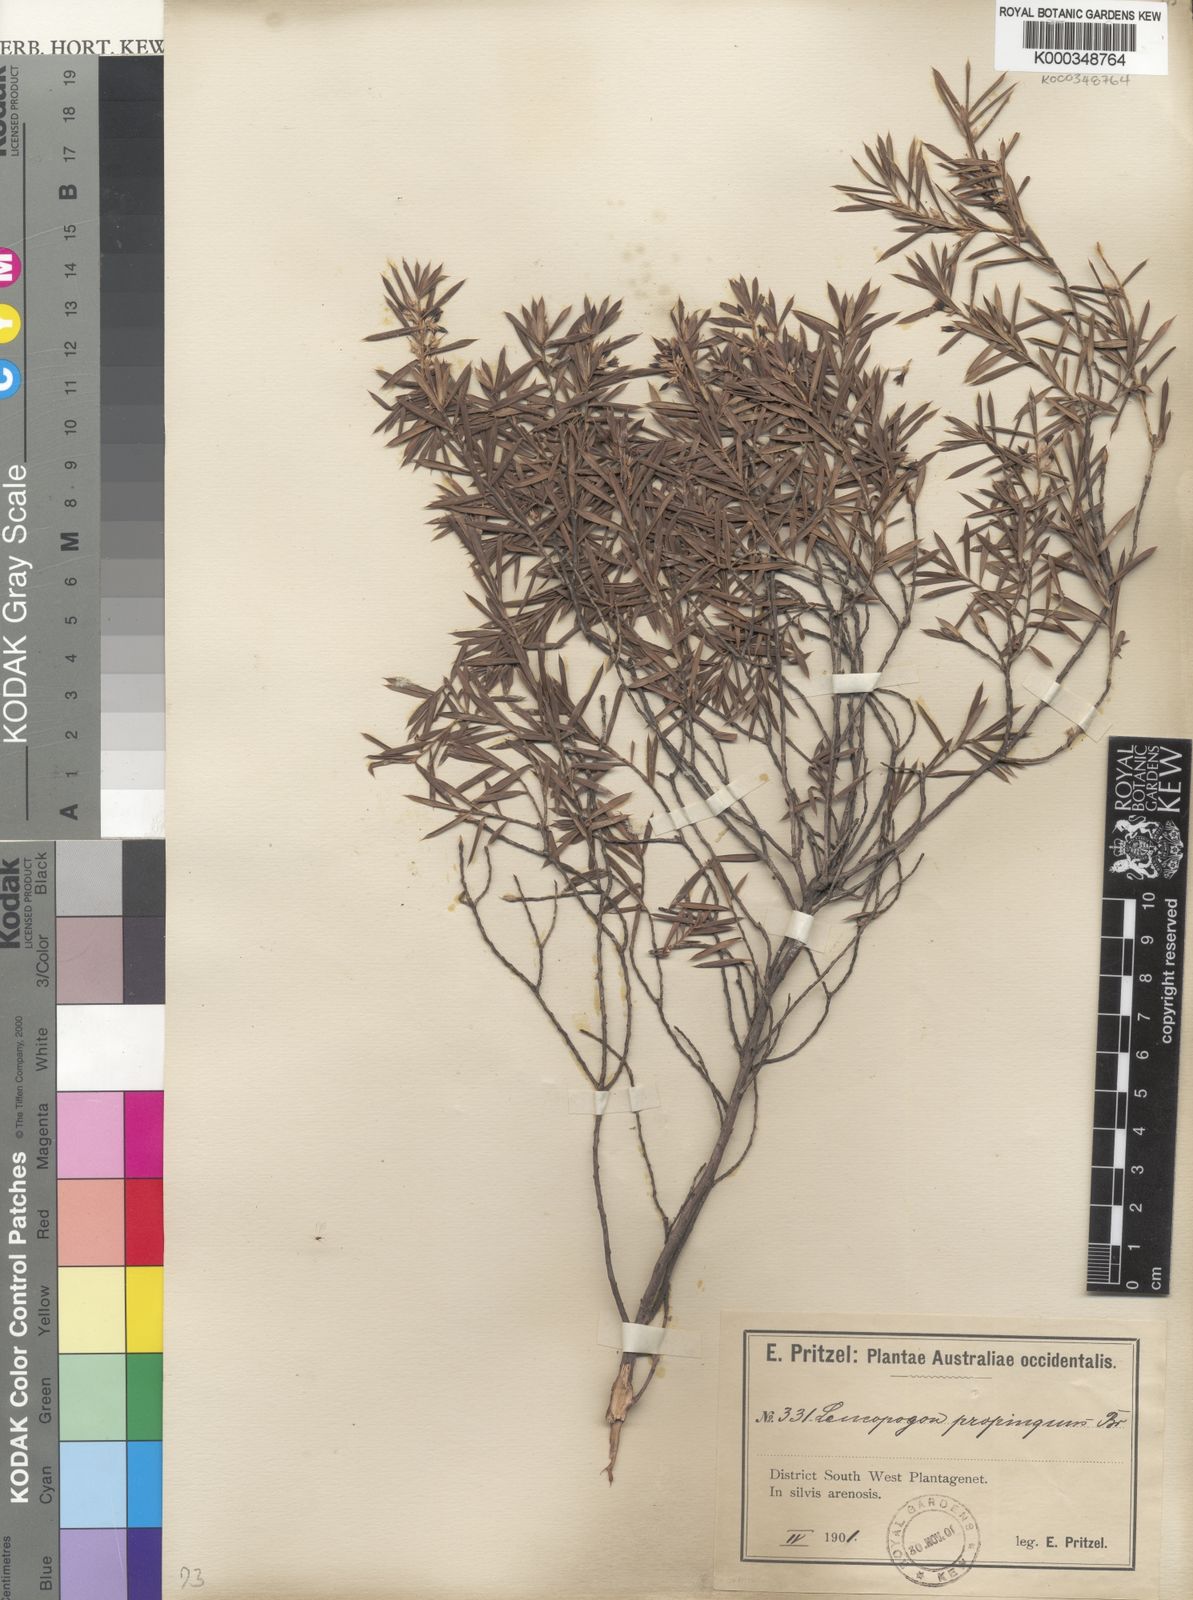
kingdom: Plantae
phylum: Tracheophyta
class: Magnoliopsida
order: Ericales
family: Ericaceae
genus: Styphelia
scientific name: Styphelia propinqua
